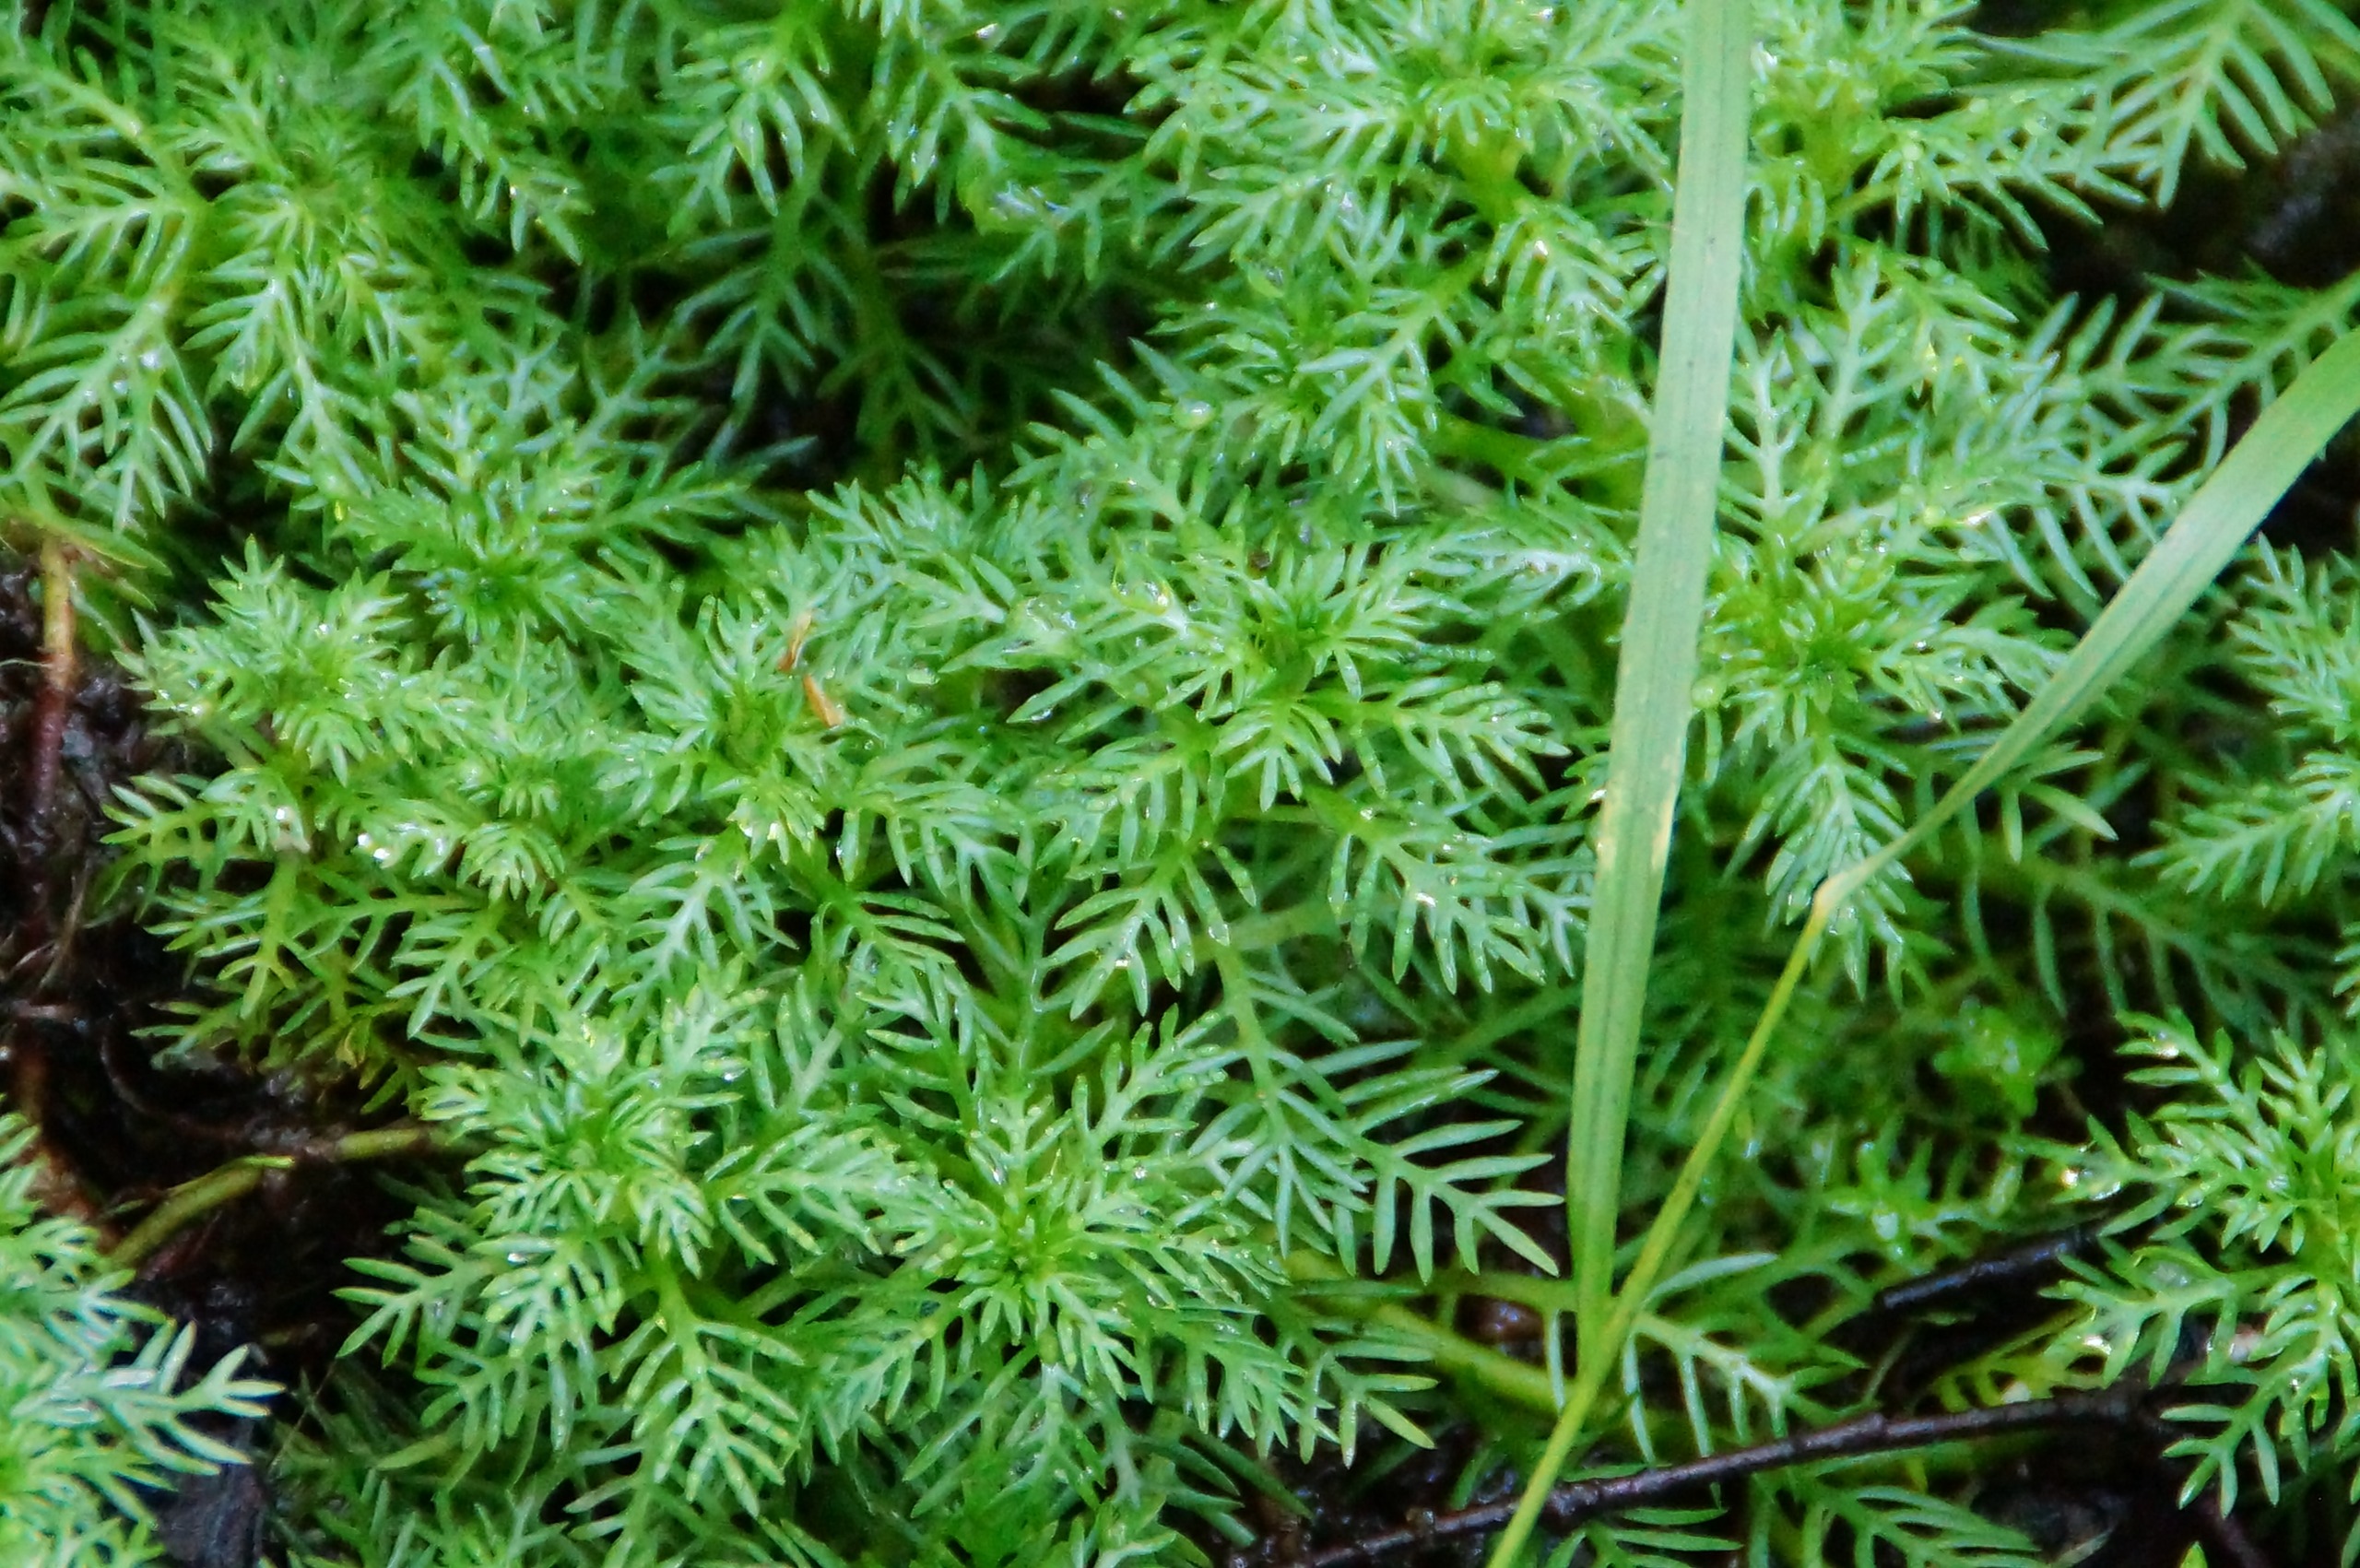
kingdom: Plantae
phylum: Tracheophyta
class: Magnoliopsida
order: Ericales
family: Primulaceae
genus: Hottonia
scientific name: Hottonia palustris
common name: Vandrøllike
